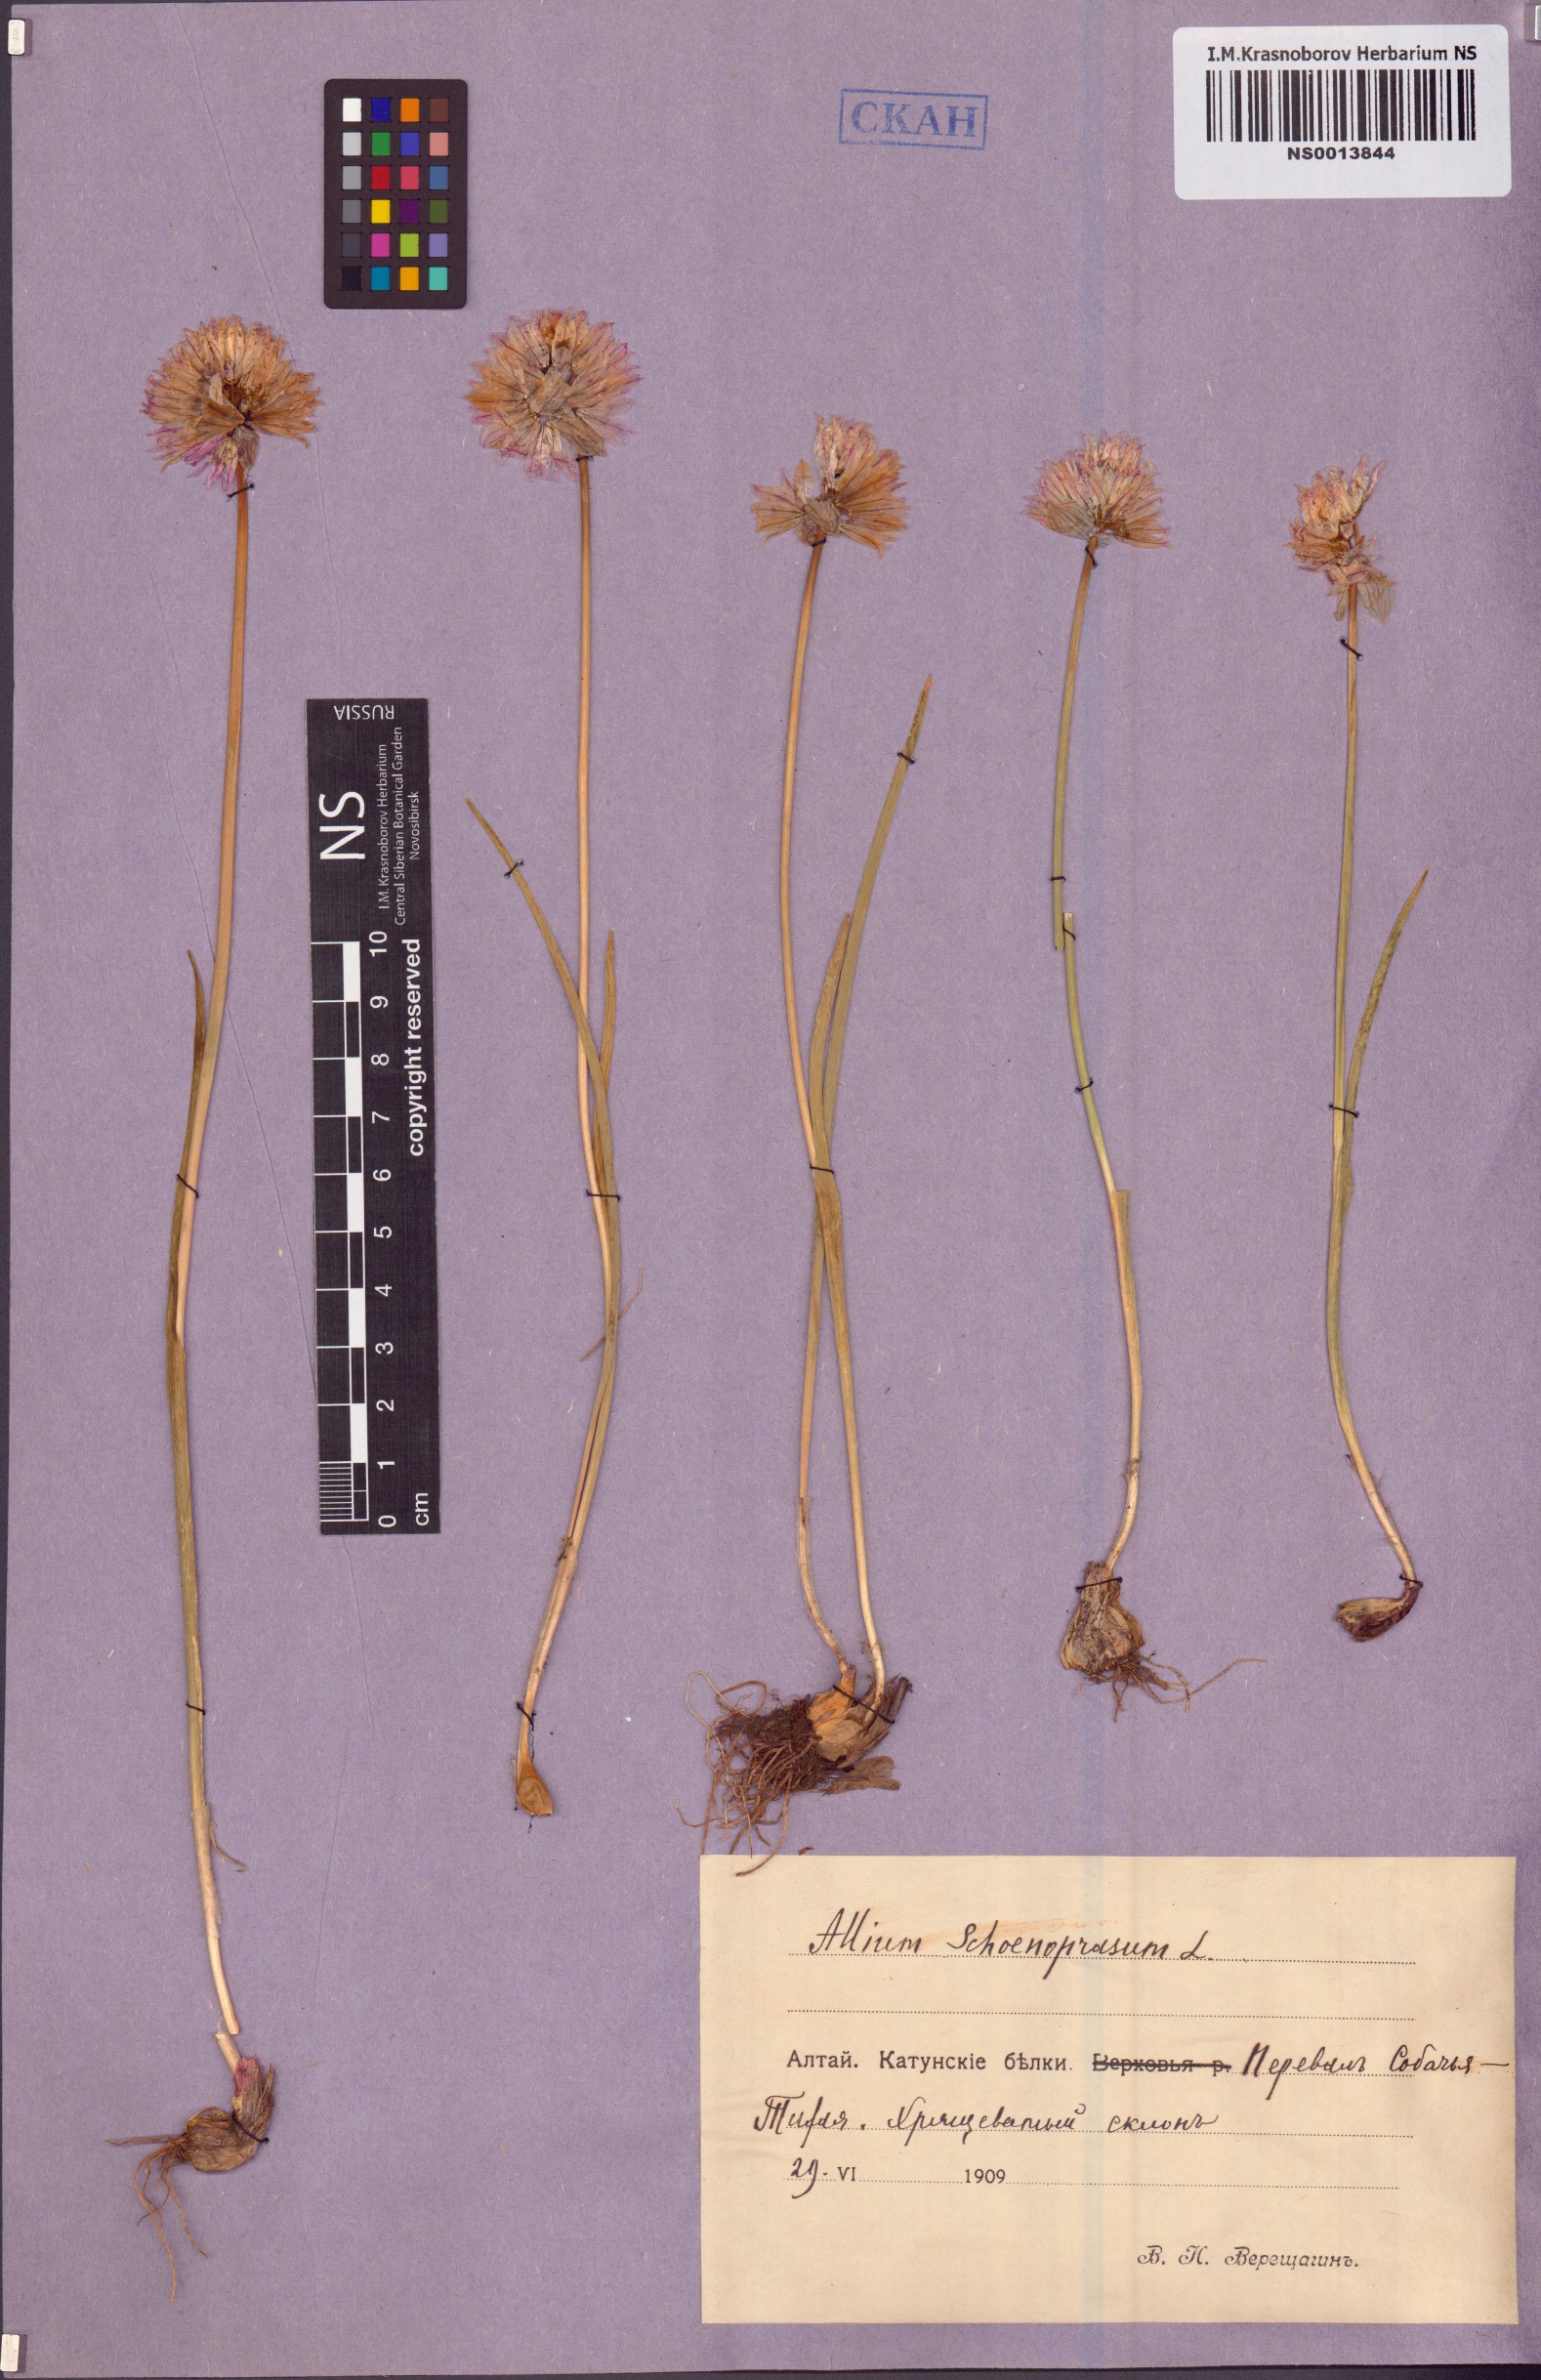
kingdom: Plantae
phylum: Tracheophyta
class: Liliopsida
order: Asparagales
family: Amaryllidaceae
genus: Allium
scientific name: Allium schoenoprasum
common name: Chives
